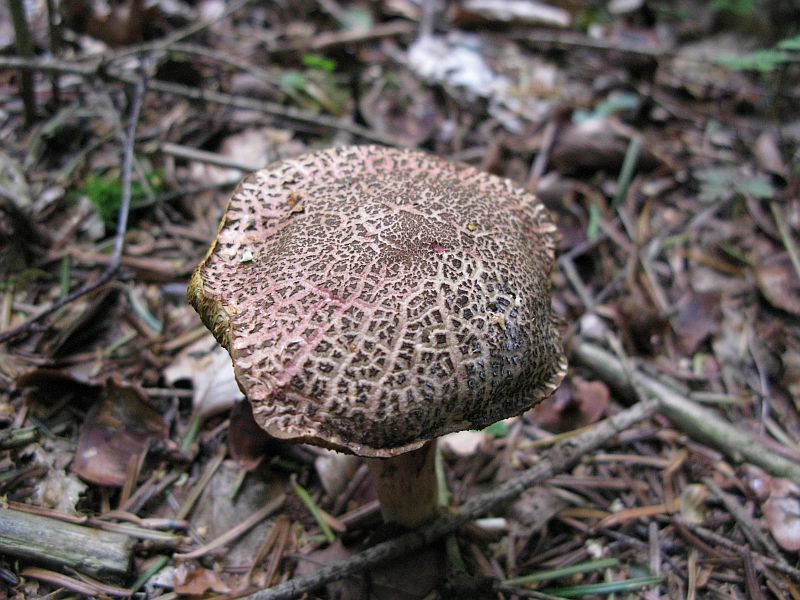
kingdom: Fungi
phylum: Basidiomycota
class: Agaricomycetes
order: Boletales
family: Boletaceae
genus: Xerocomellus
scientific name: Xerocomellus chrysenteron
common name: rødsprukken rørhat
